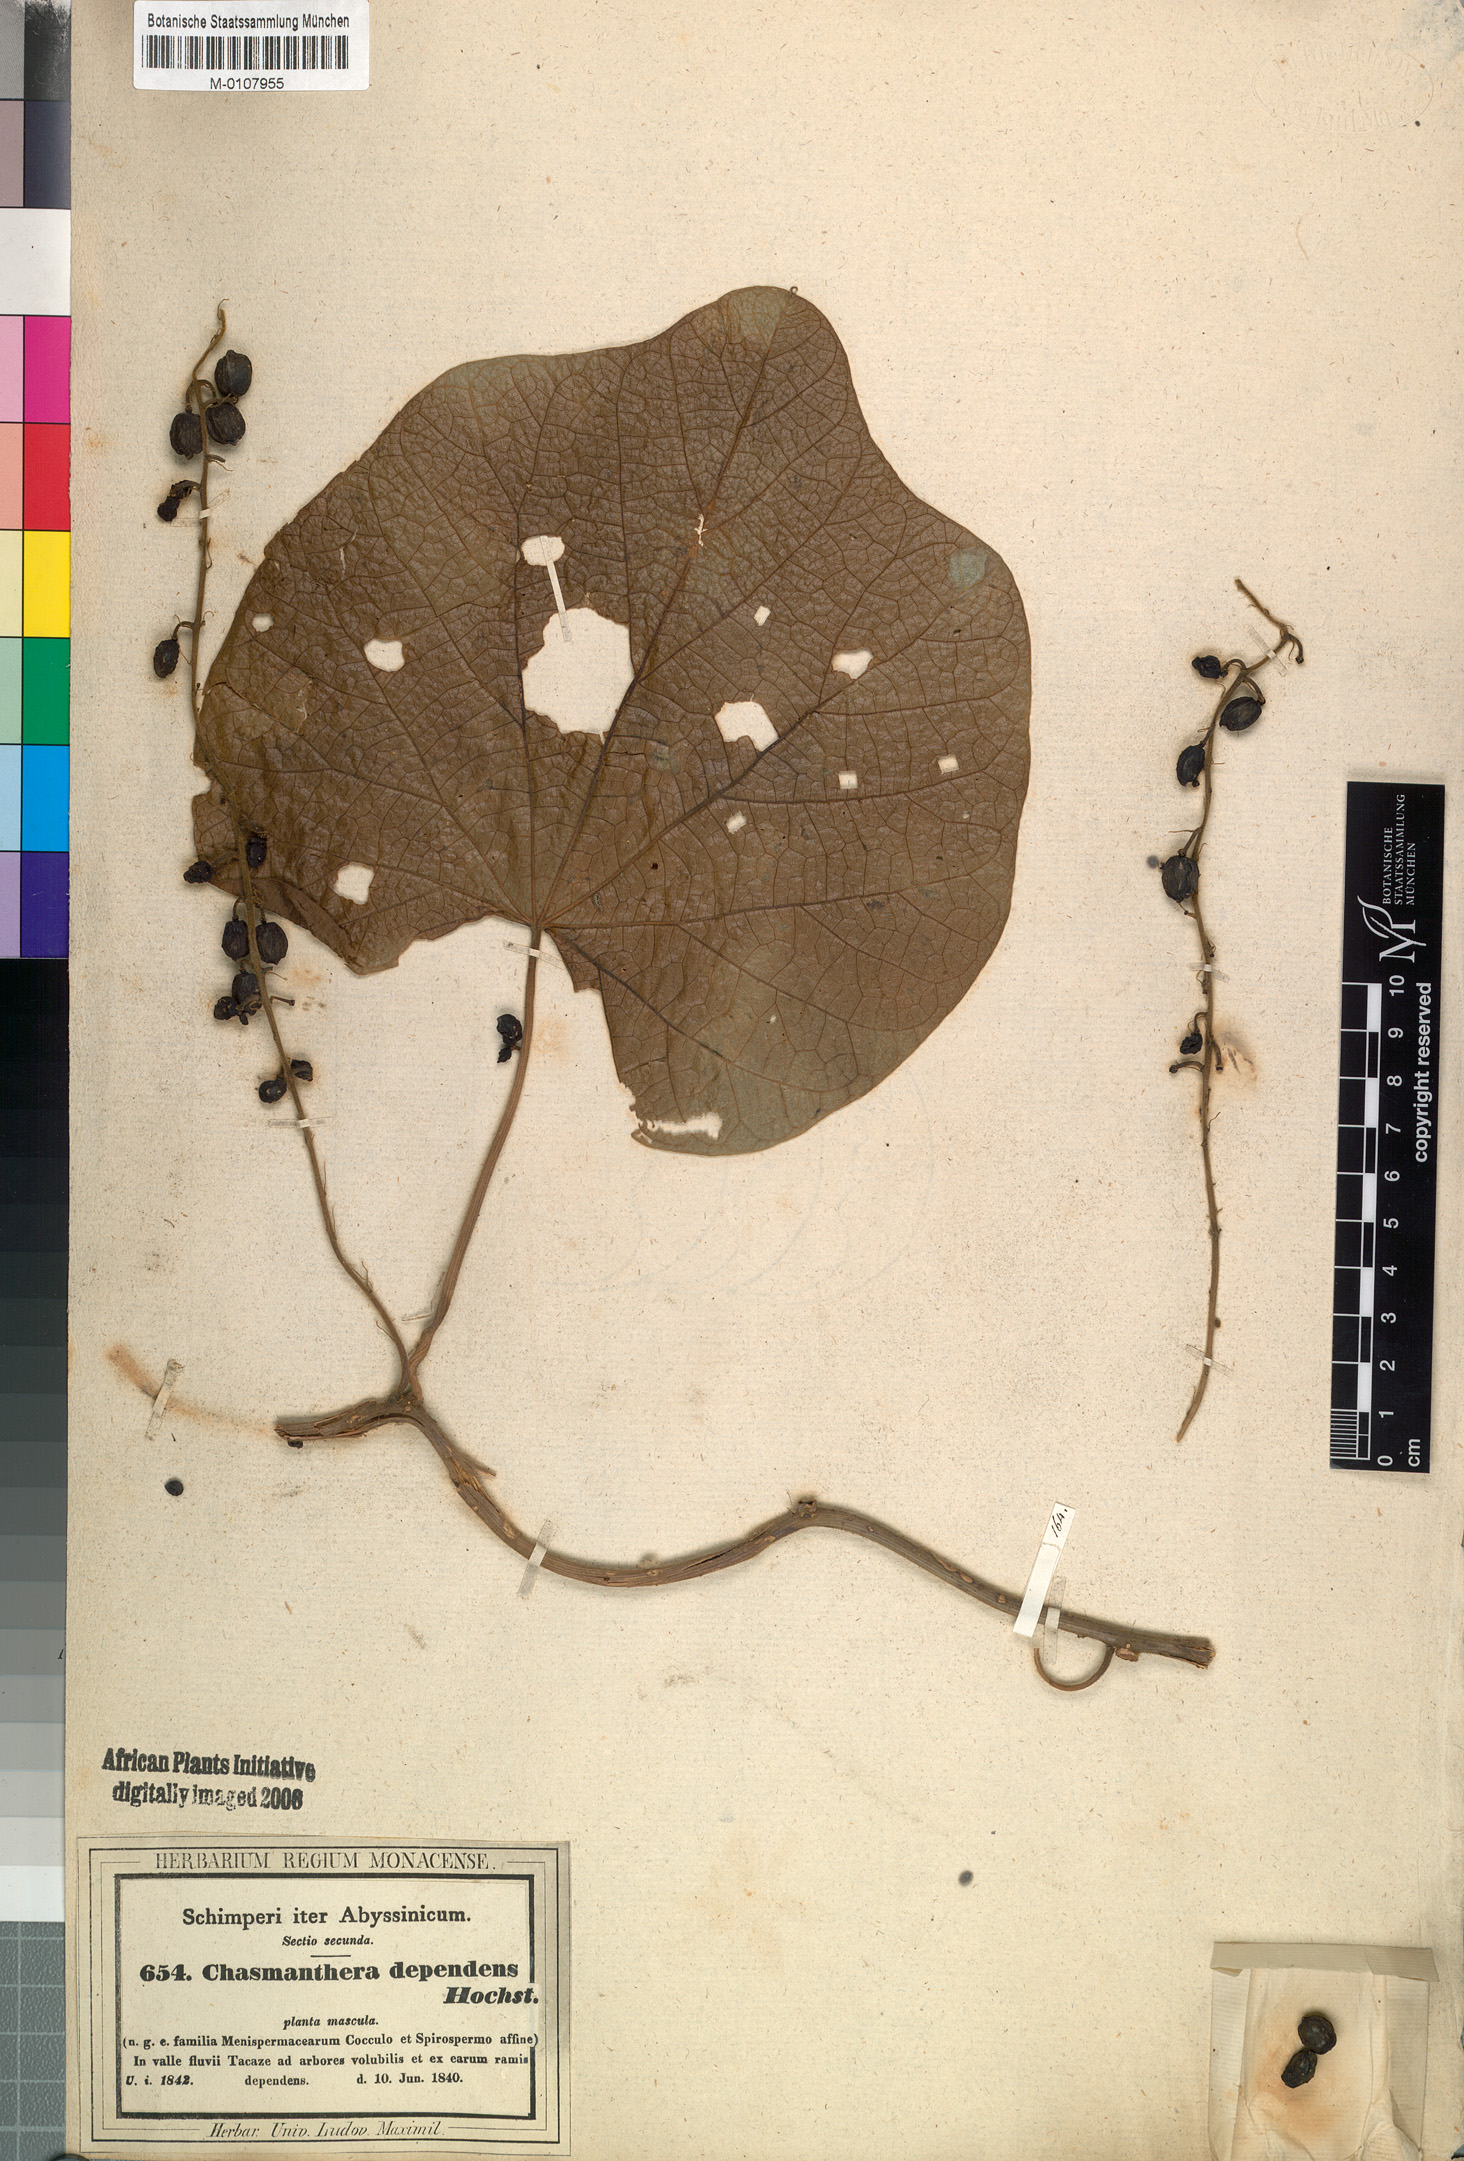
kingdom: Plantae
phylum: Tracheophyta
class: Magnoliopsida
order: Ranunculales
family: Menispermaceae
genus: Chasmanthera
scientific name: Chasmanthera dependens
